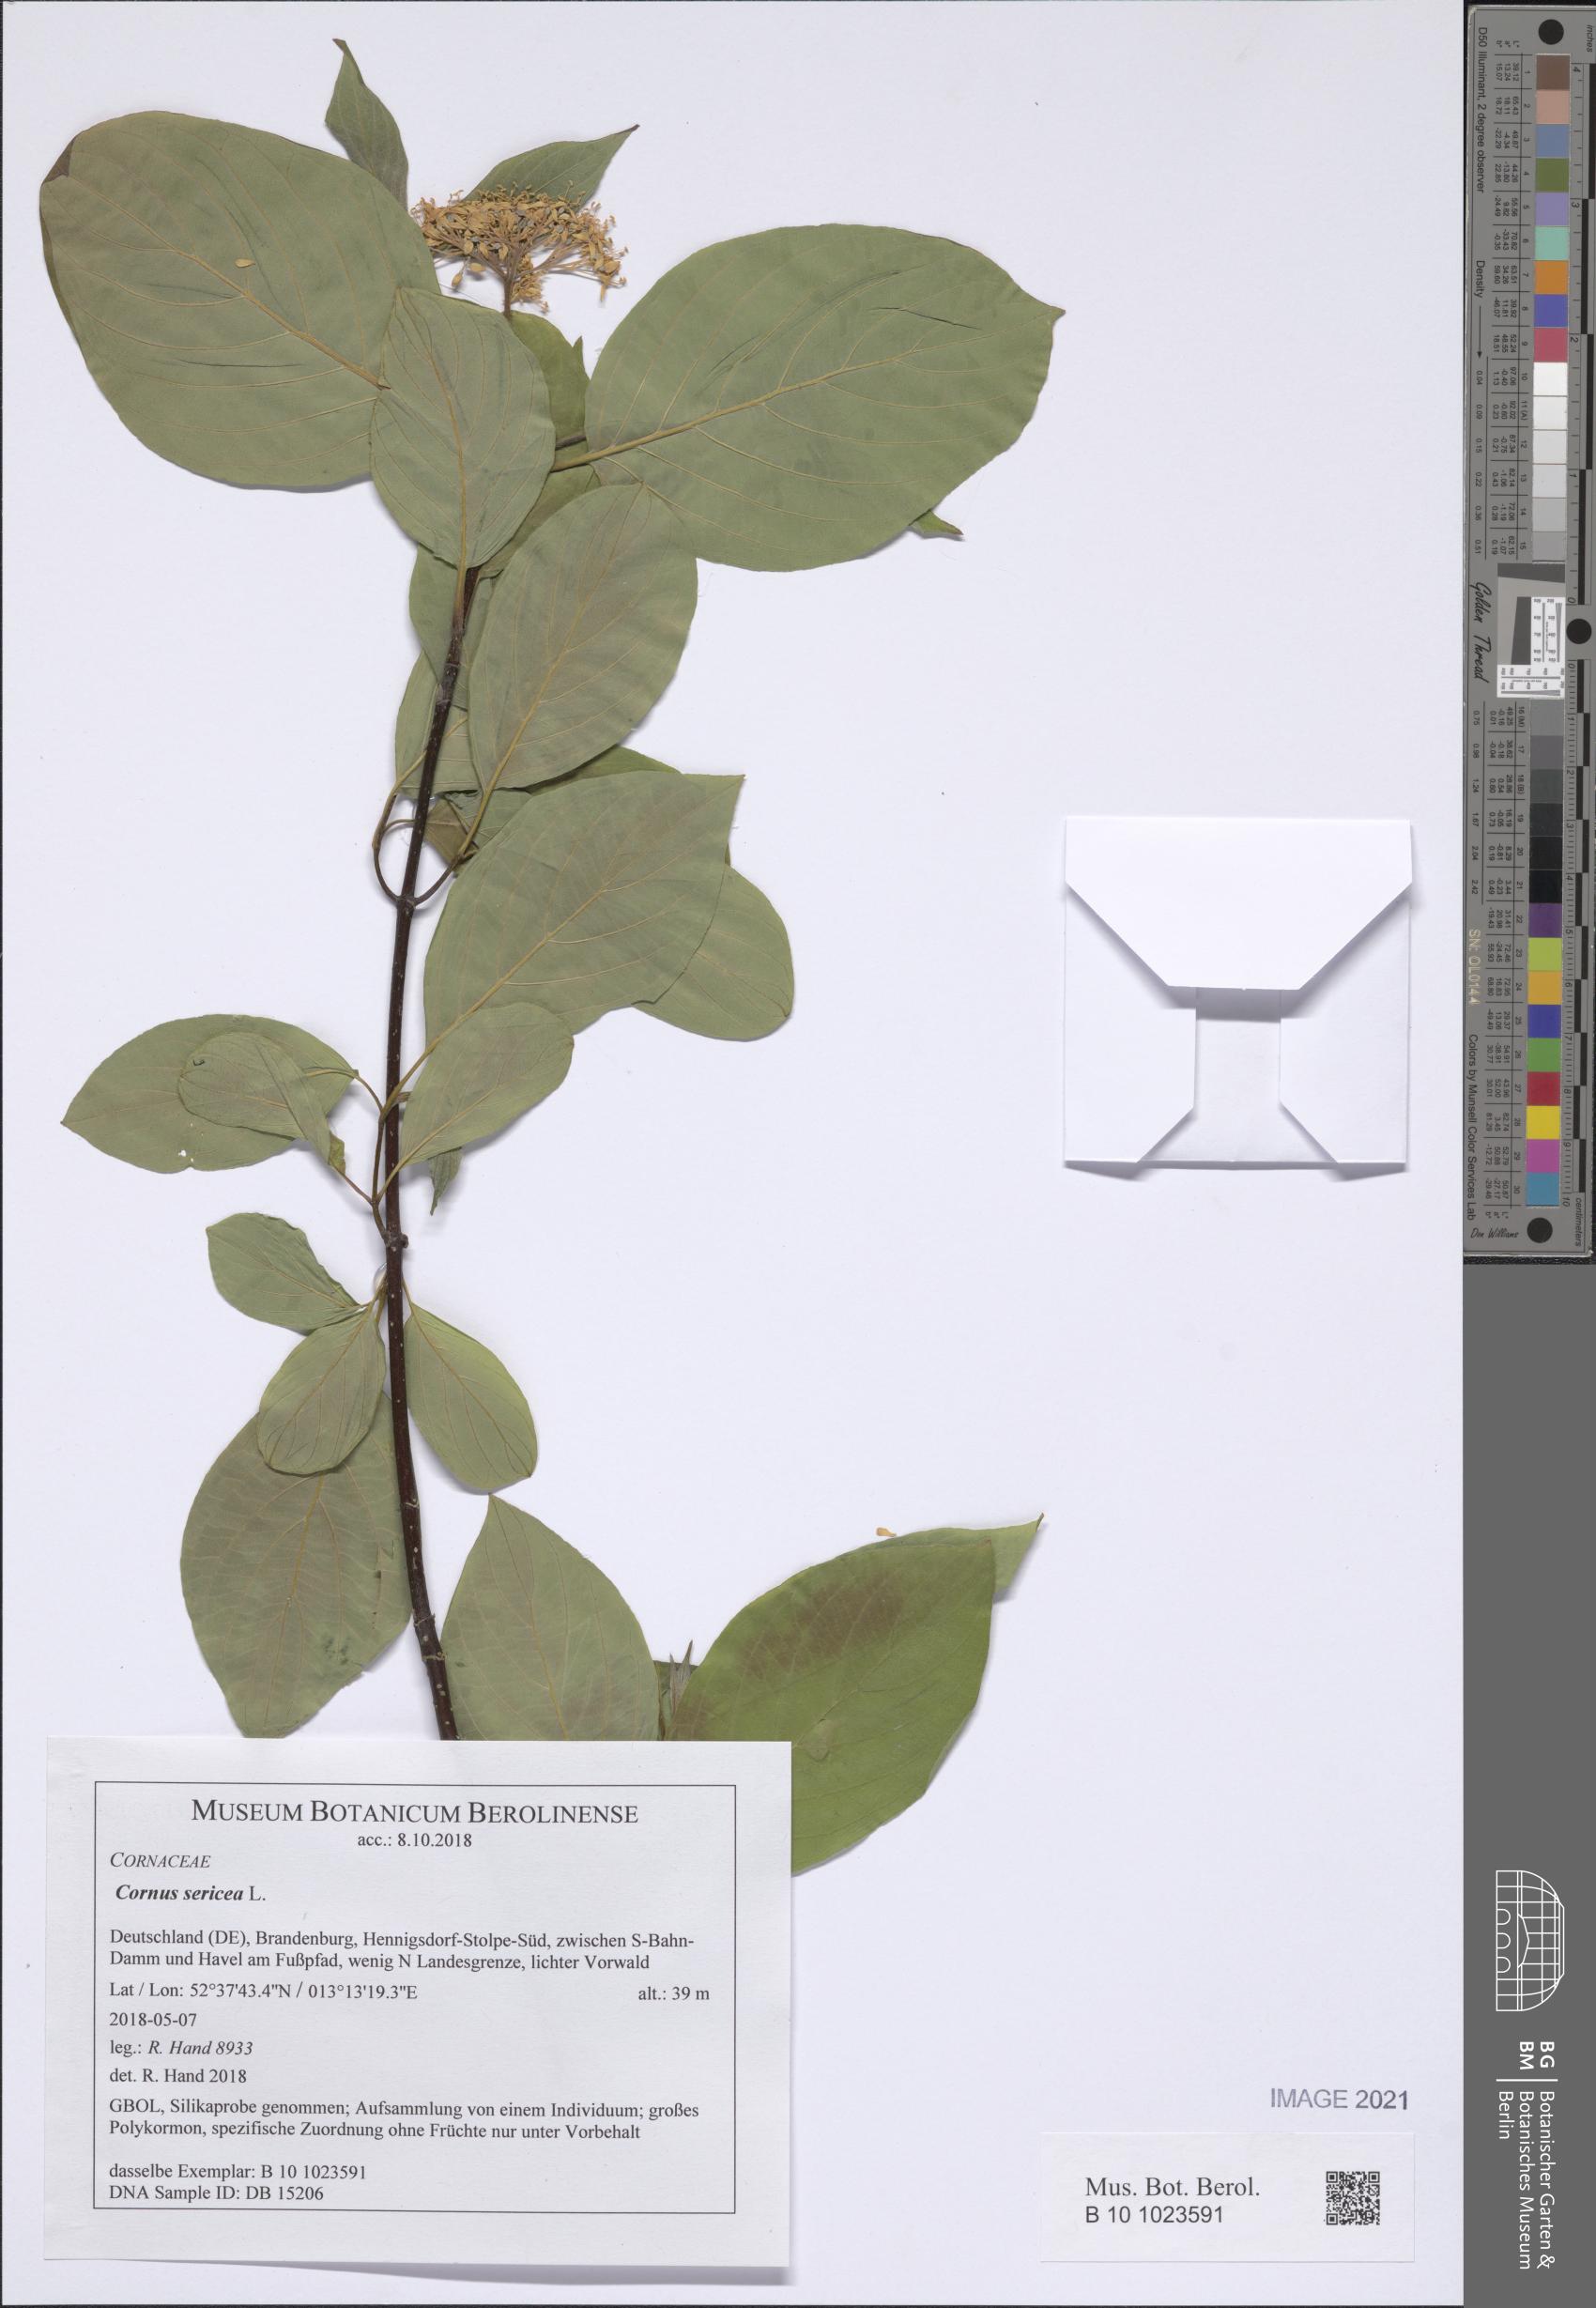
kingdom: Plantae
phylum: Tracheophyta
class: Magnoliopsida
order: Cornales
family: Cornaceae
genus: Cornus
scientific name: Cornus sericea
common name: Red-osier dogwood
